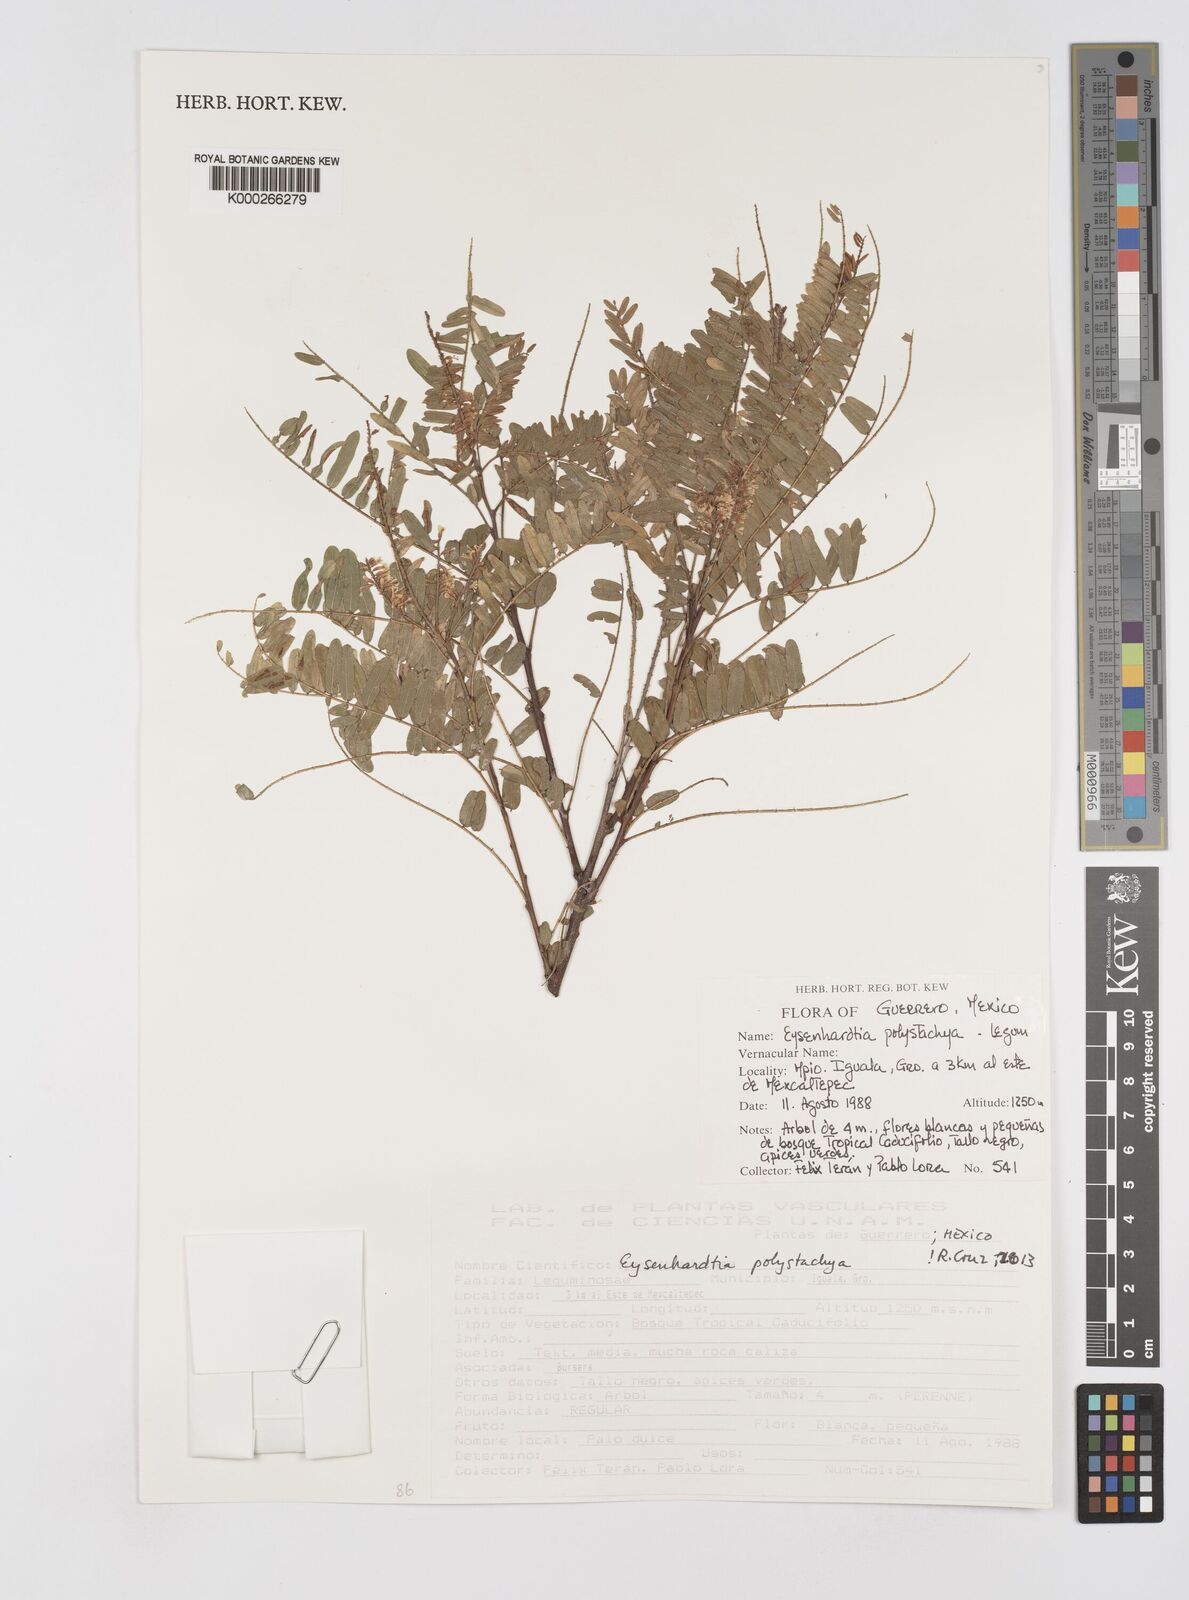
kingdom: Plantae
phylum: Tracheophyta
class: Magnoliopsida
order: Fabales
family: Fabaceae
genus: Eysenhardtia
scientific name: Eysenhardtia polystachya
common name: Kidneywood
